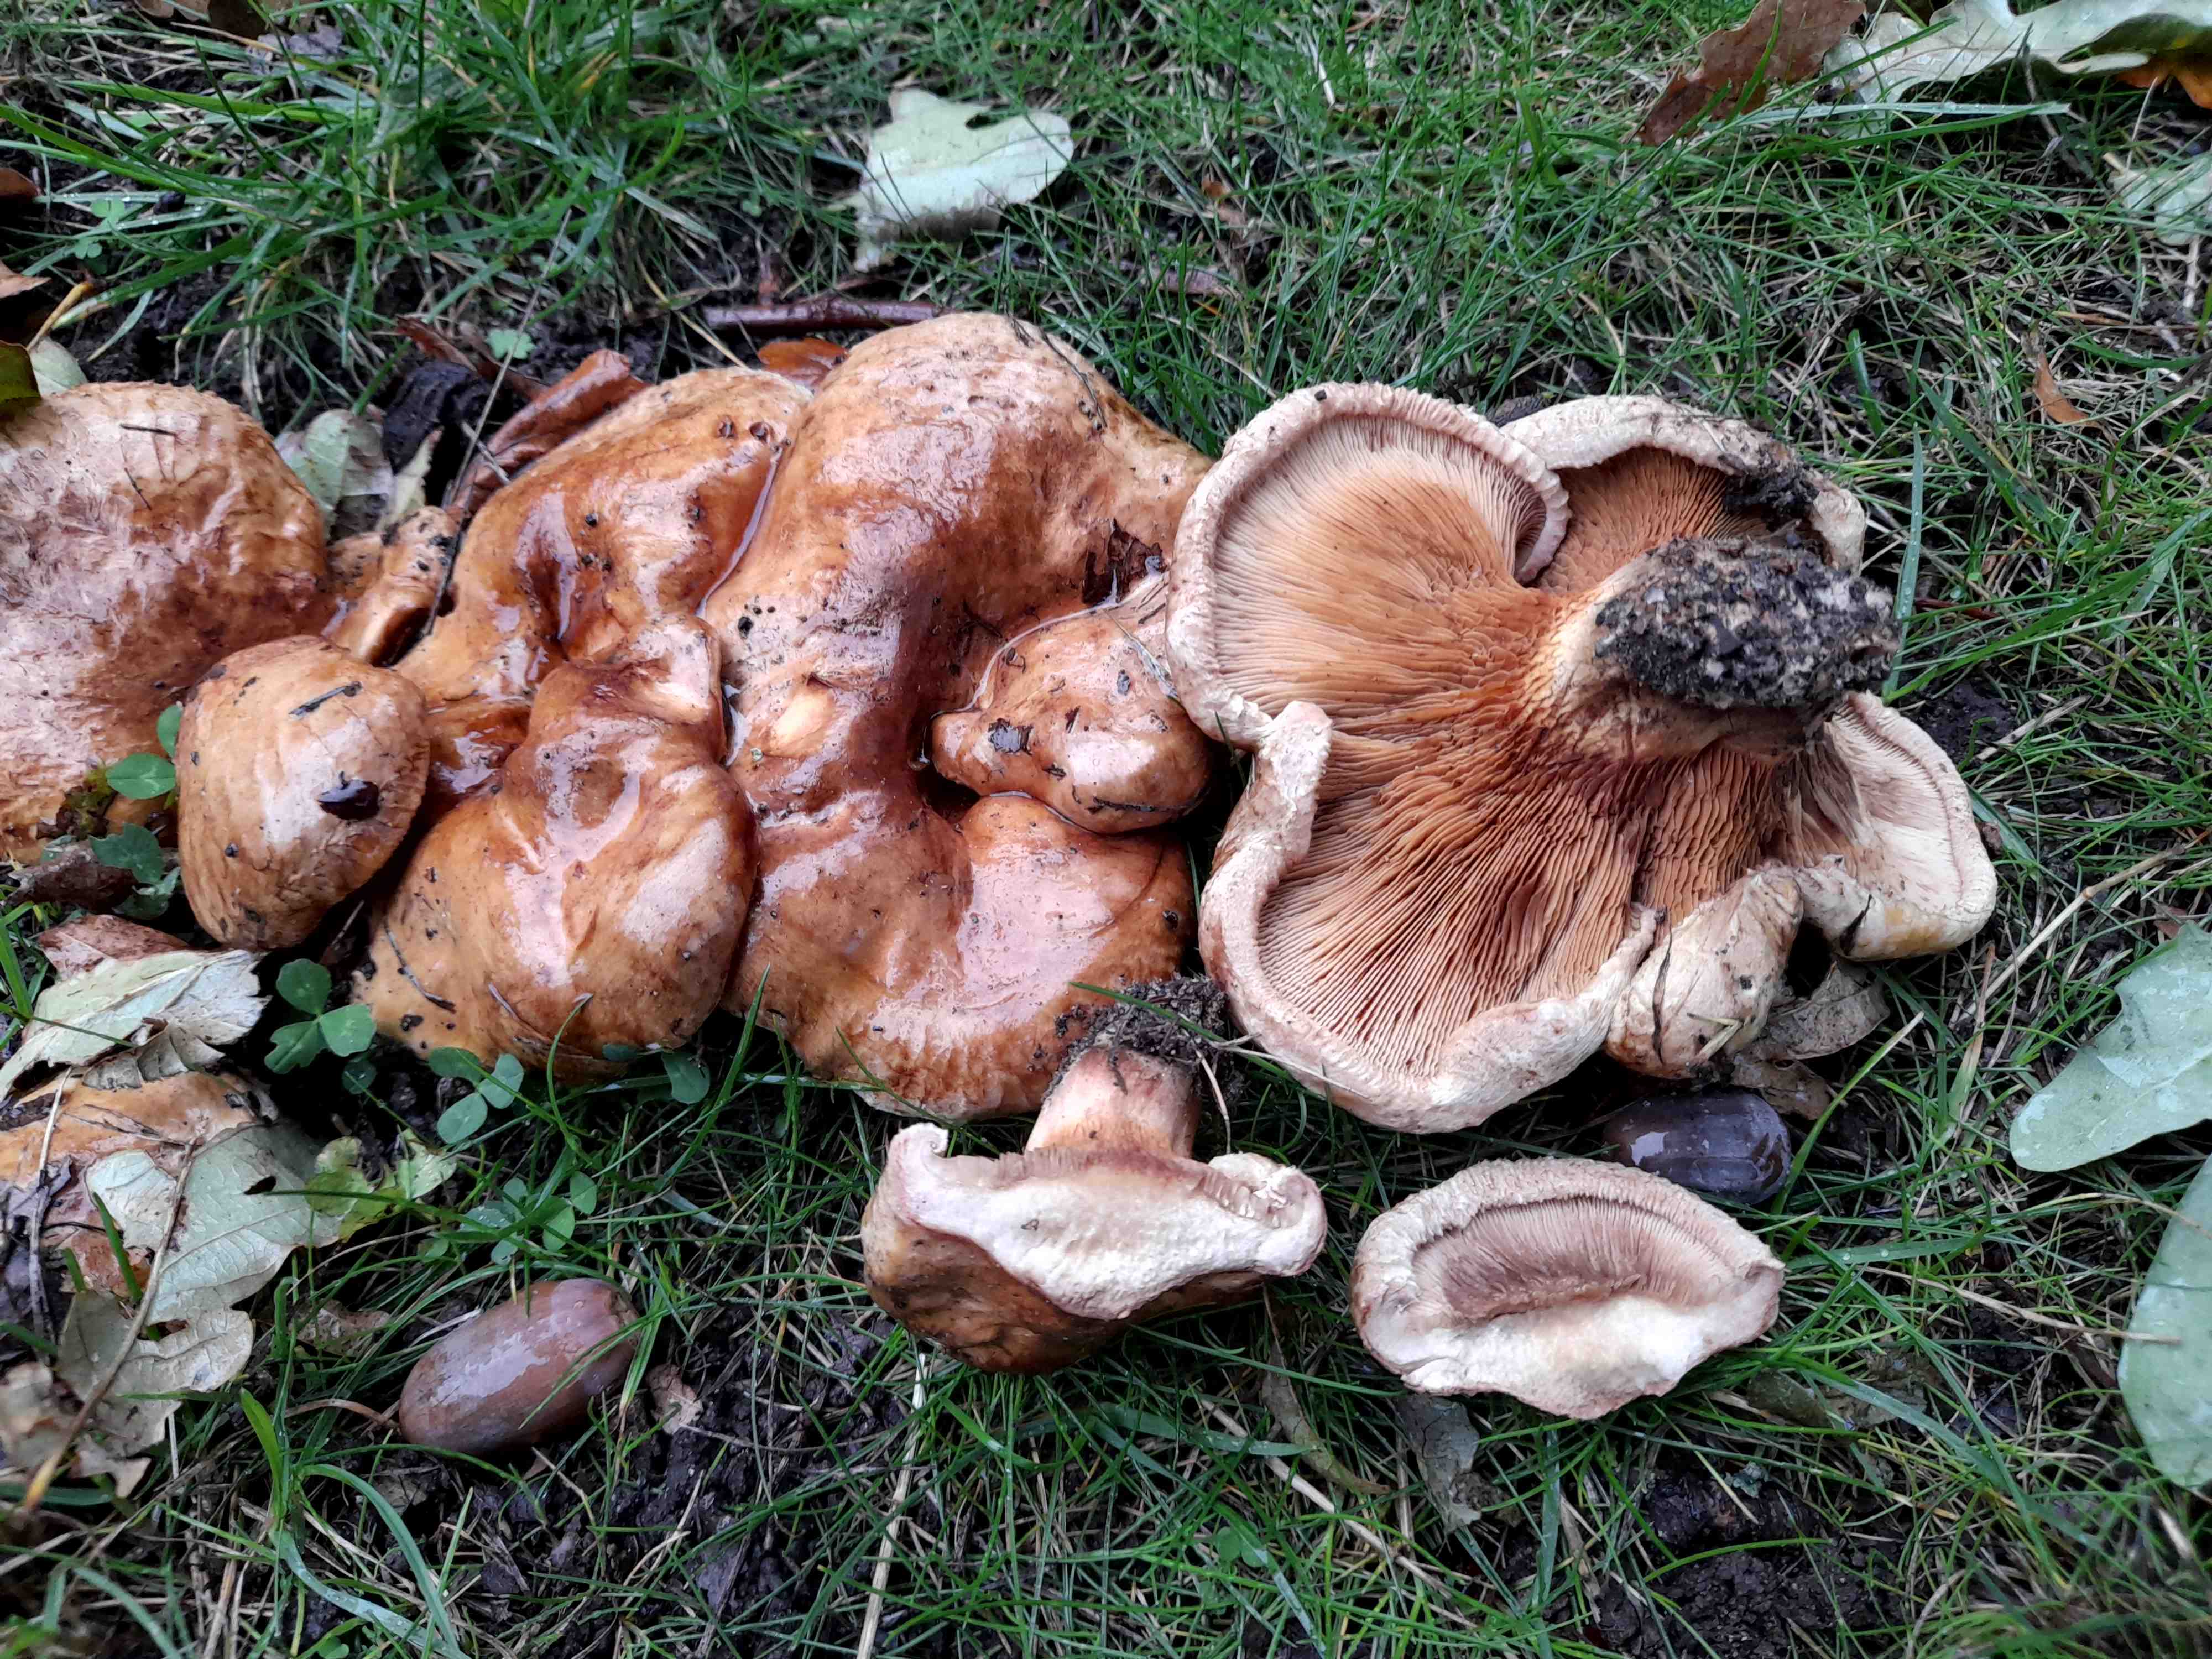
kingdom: Fungi
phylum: Basidiomycota
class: Agaricomycetes
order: Boletales
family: Paxillaceae
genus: Paxillus
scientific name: Paxillus involutus
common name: almindelig netbladhat
